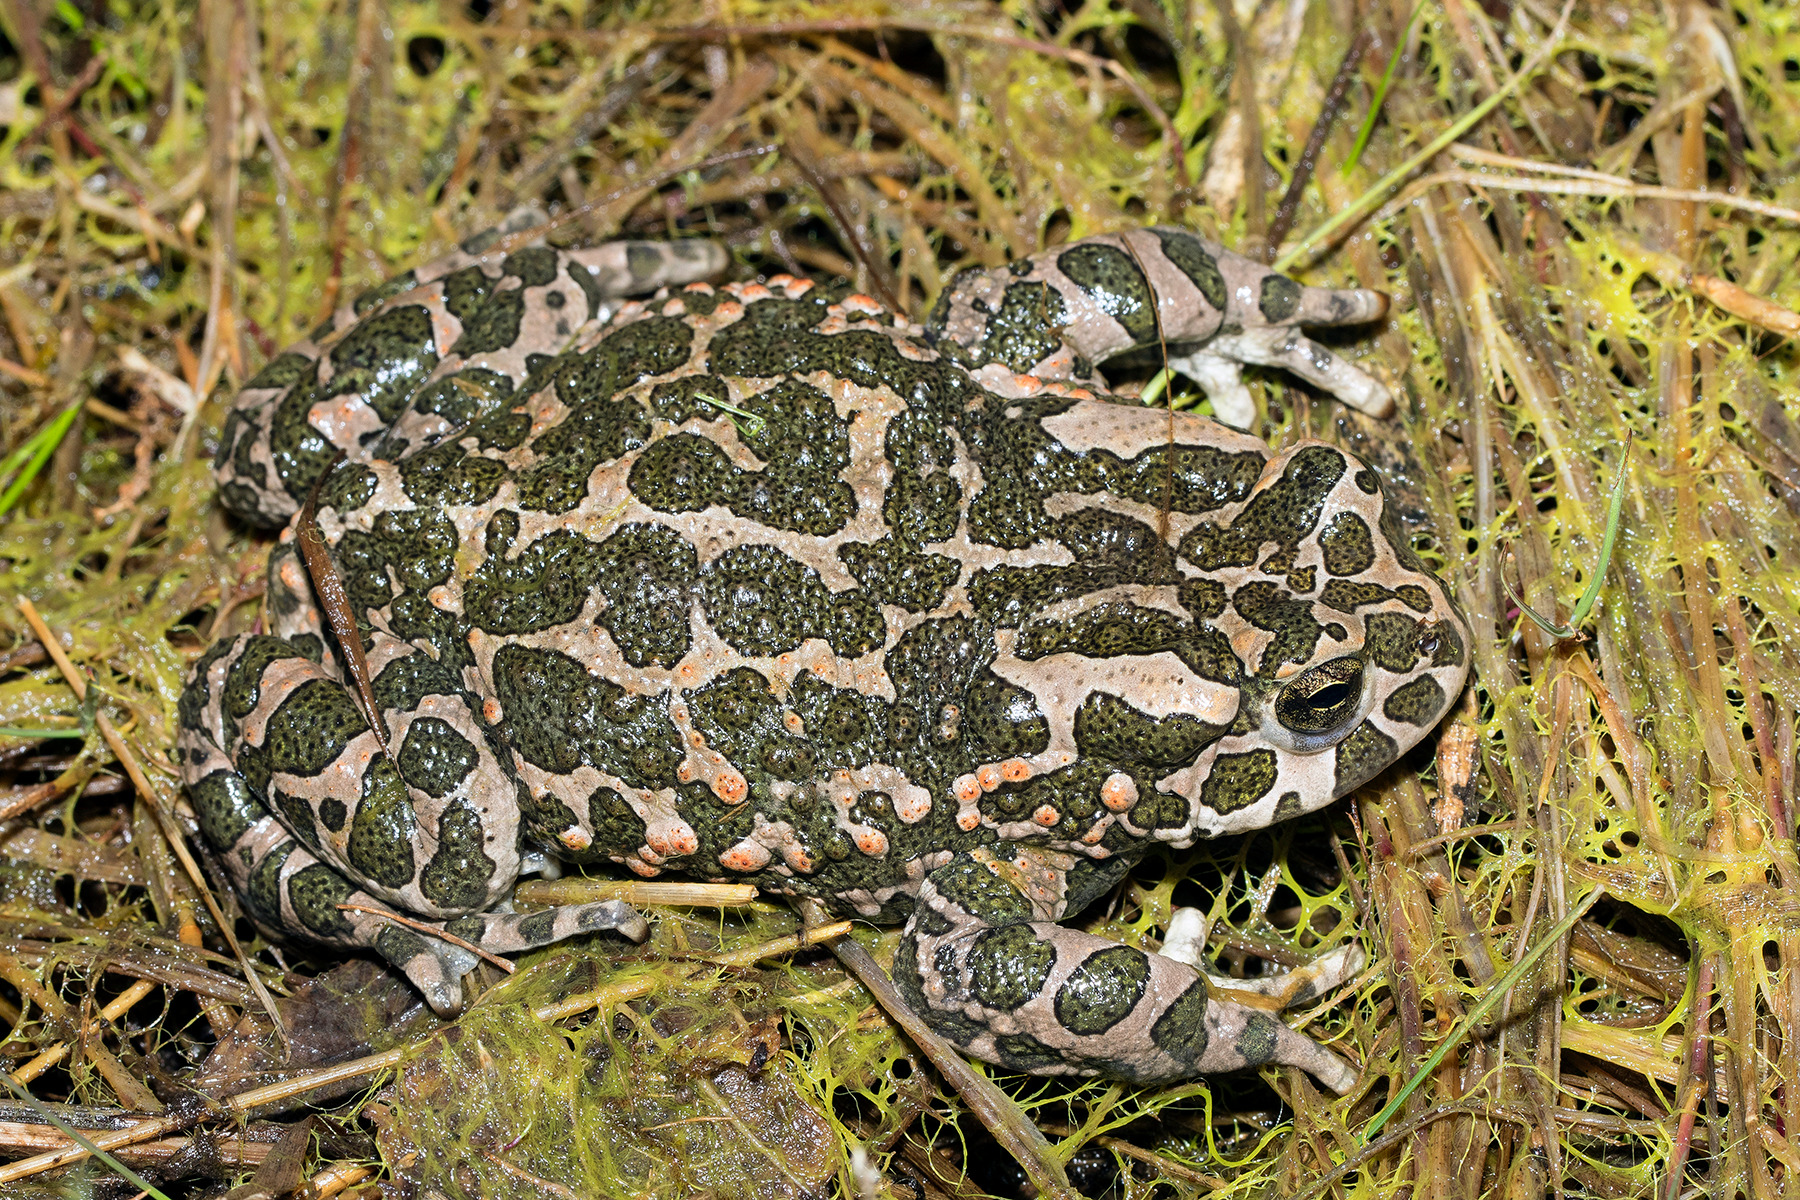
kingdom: Animalia
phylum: Chordata
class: Amphibia
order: Anura
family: Bufonidae
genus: Bufotes
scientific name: Bufotes viridis
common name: Grønbroget tudse
